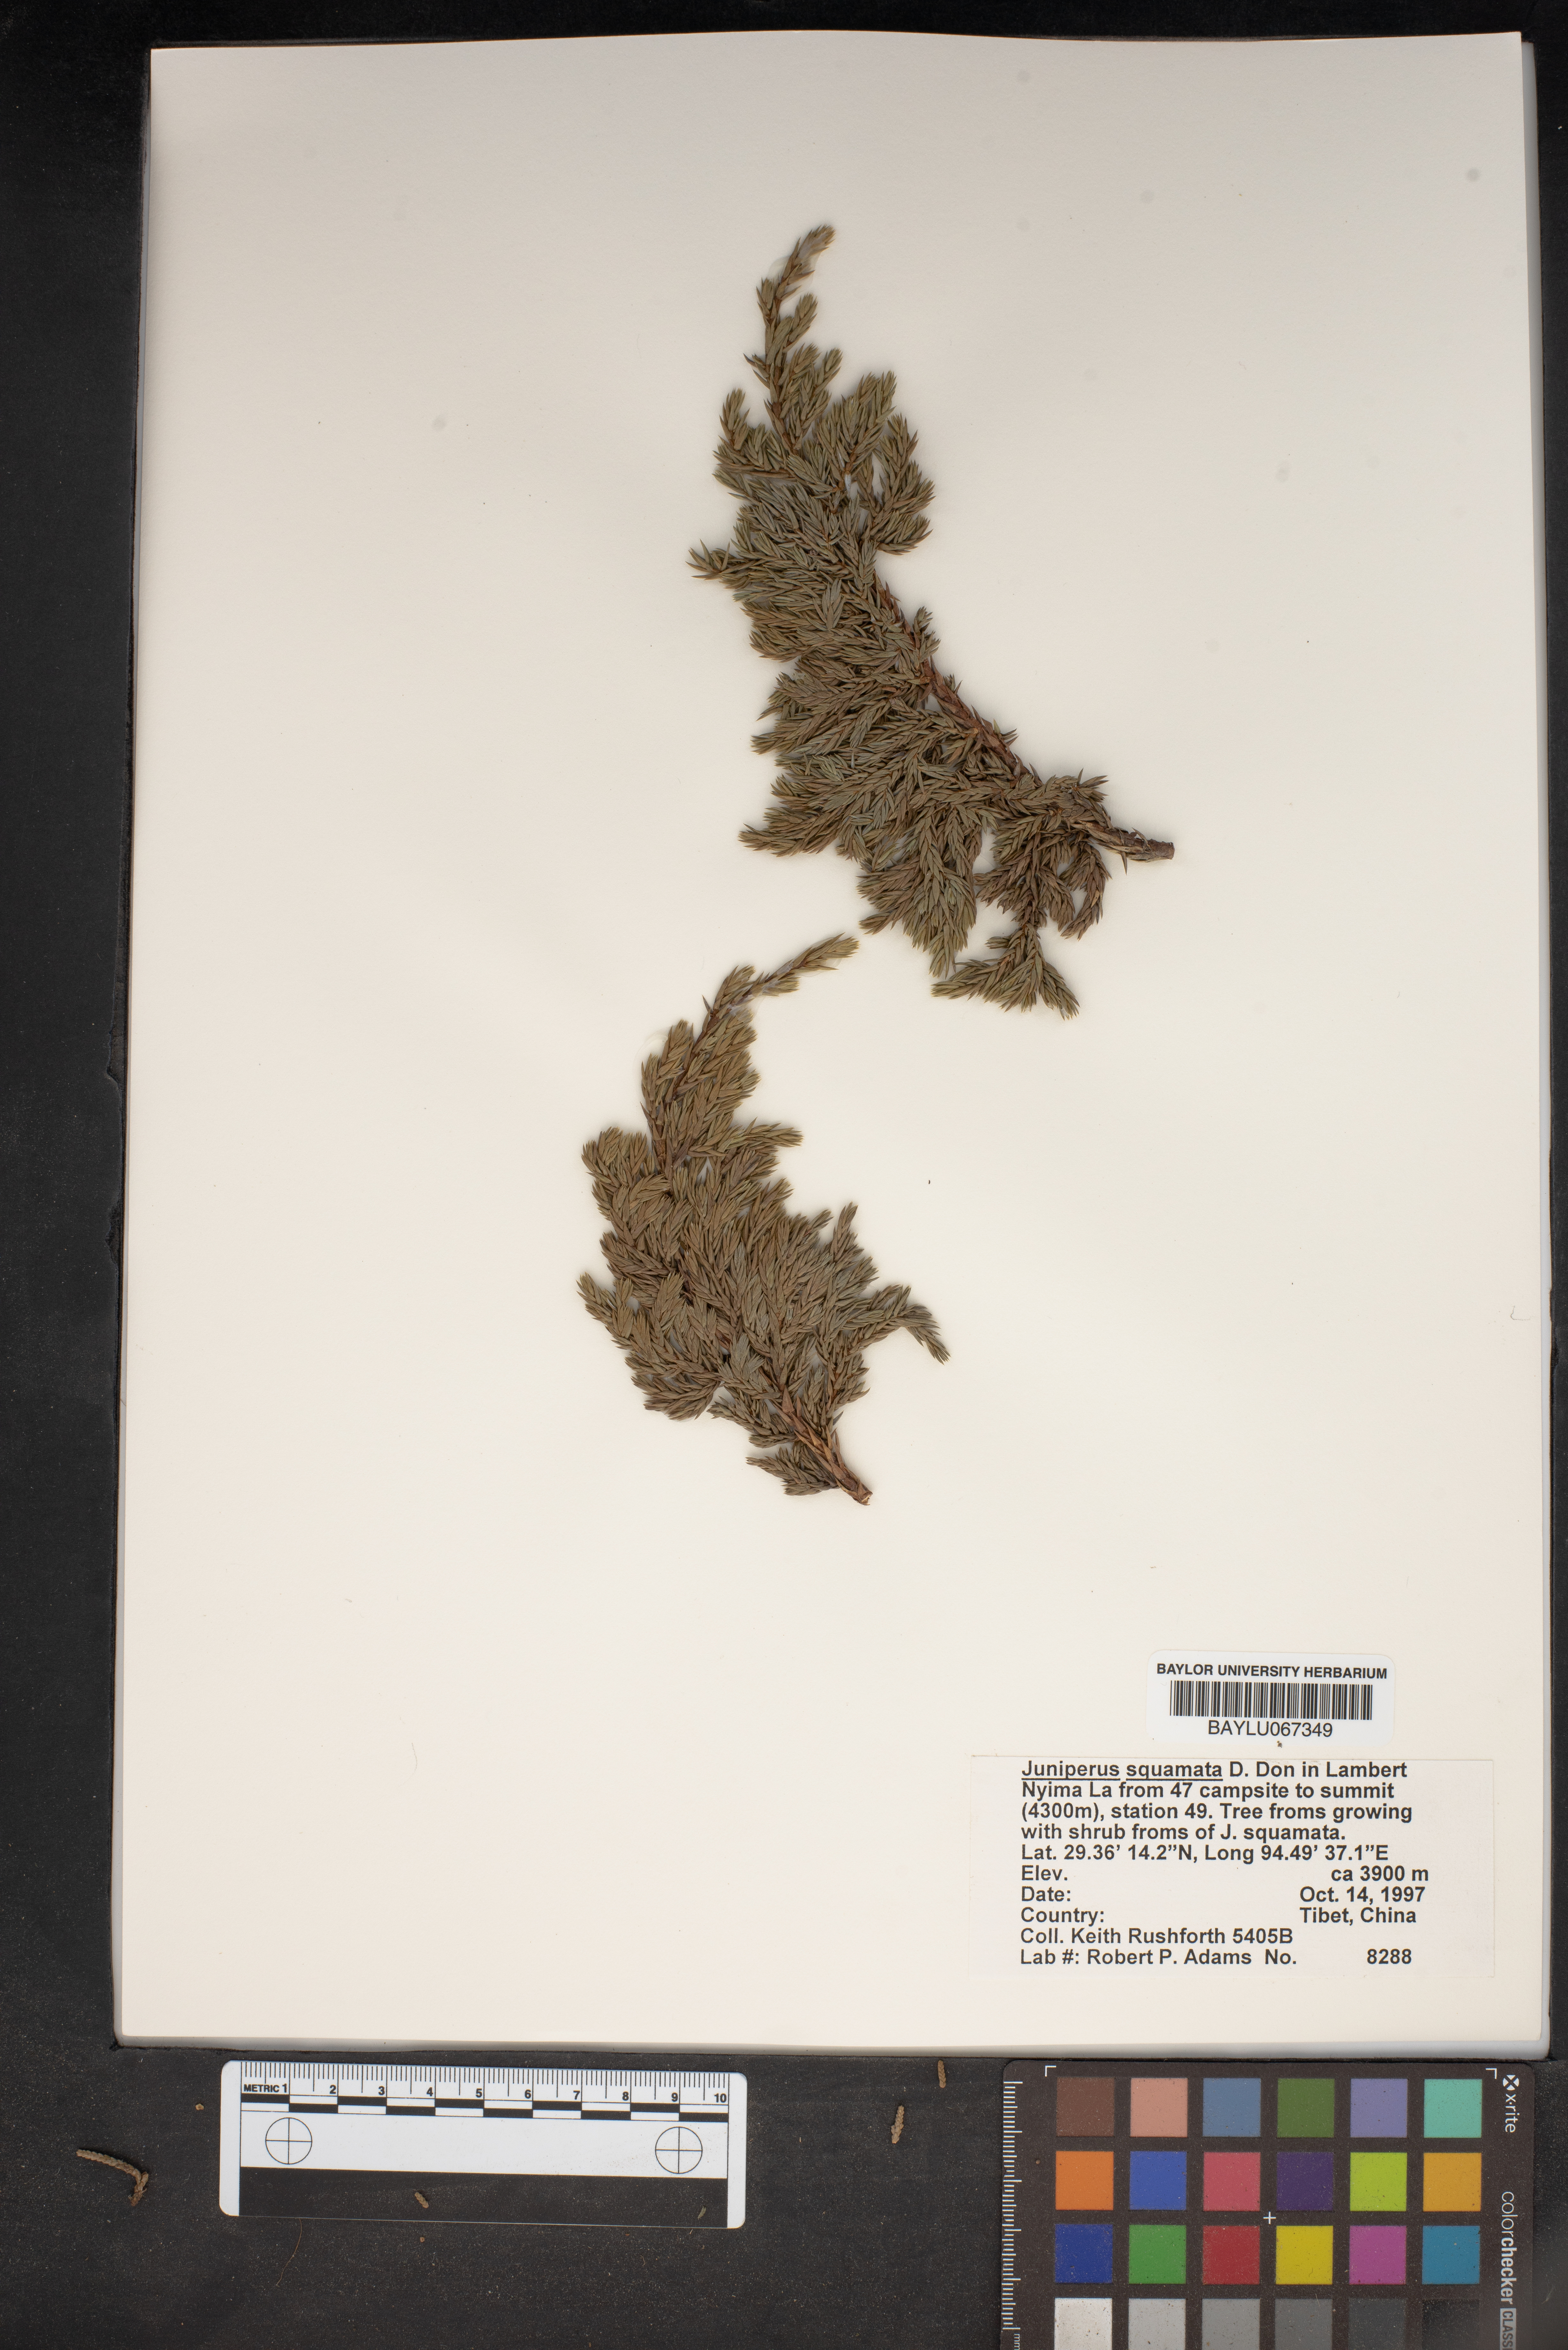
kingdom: Plantae
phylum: Tracheophyta
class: Pinopsida
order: Pinales
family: Cupressaceae
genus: Juniperus
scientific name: Juniperus squamata
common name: Flaky juniper
